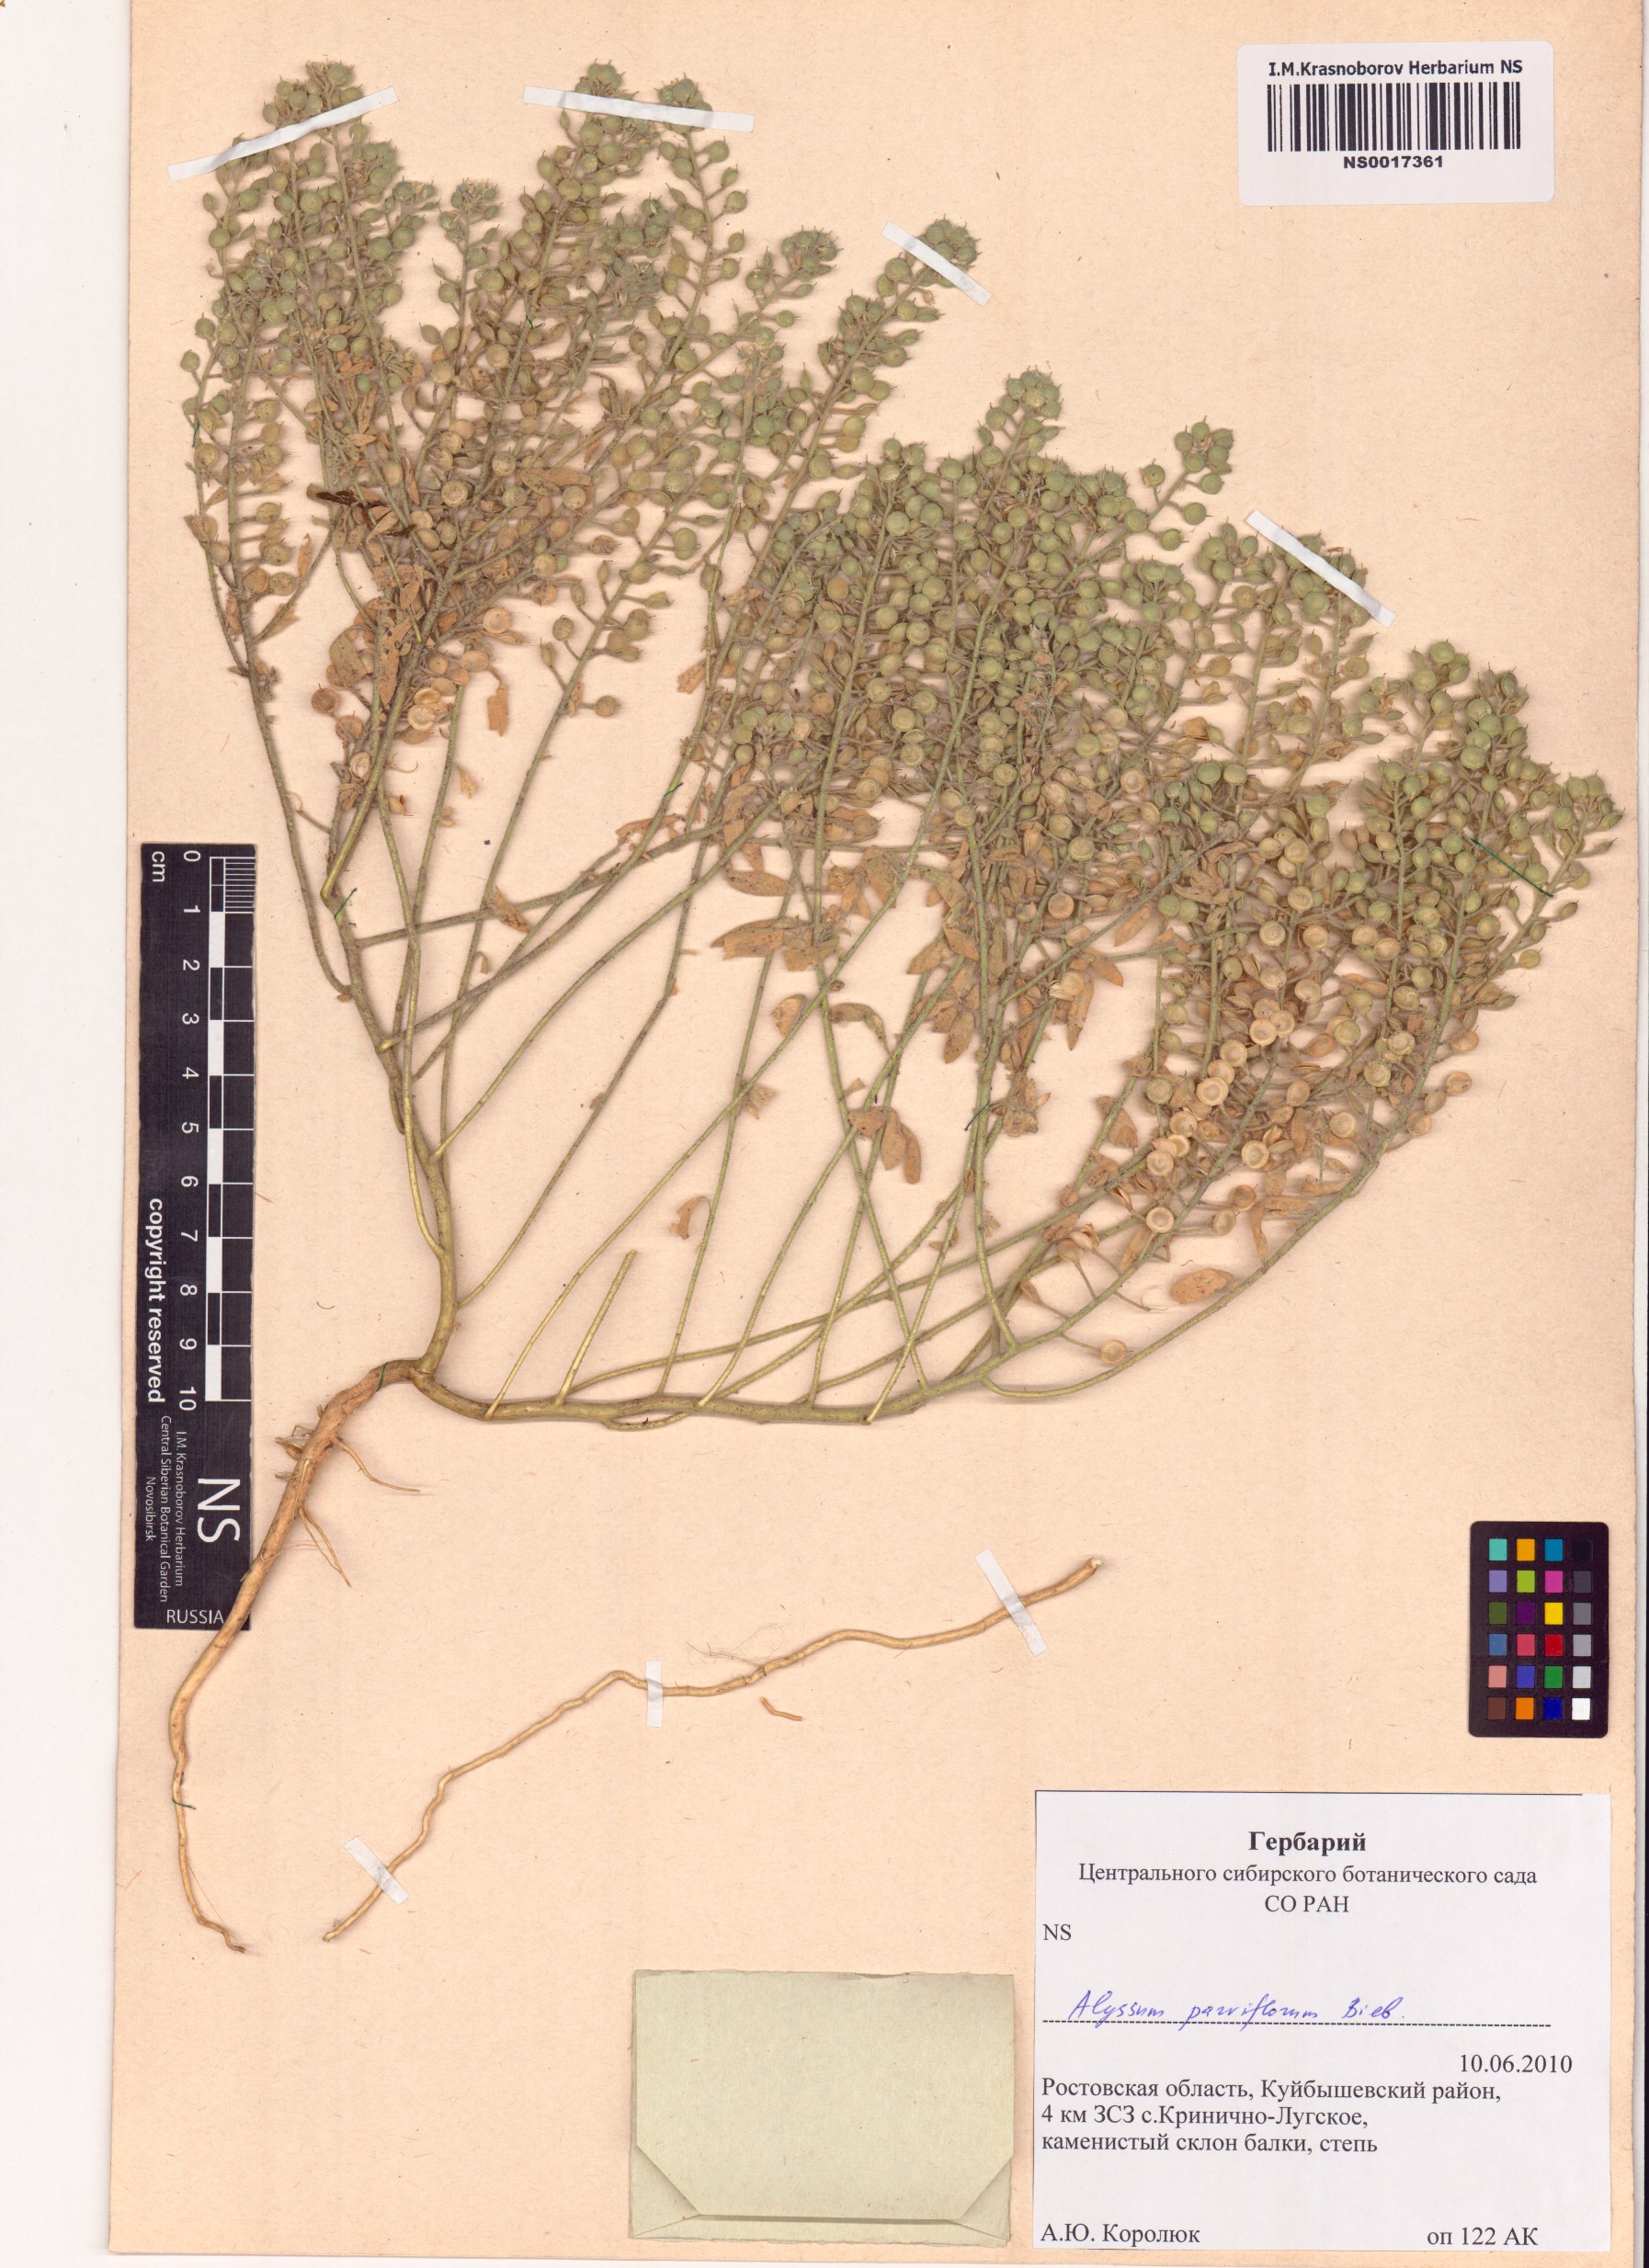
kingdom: Plantae
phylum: Tracheophyta
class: Magnoliopsida
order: Brassicales
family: Brassicaceae
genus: Alyssum
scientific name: Alyssum simplex
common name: Alyssum
